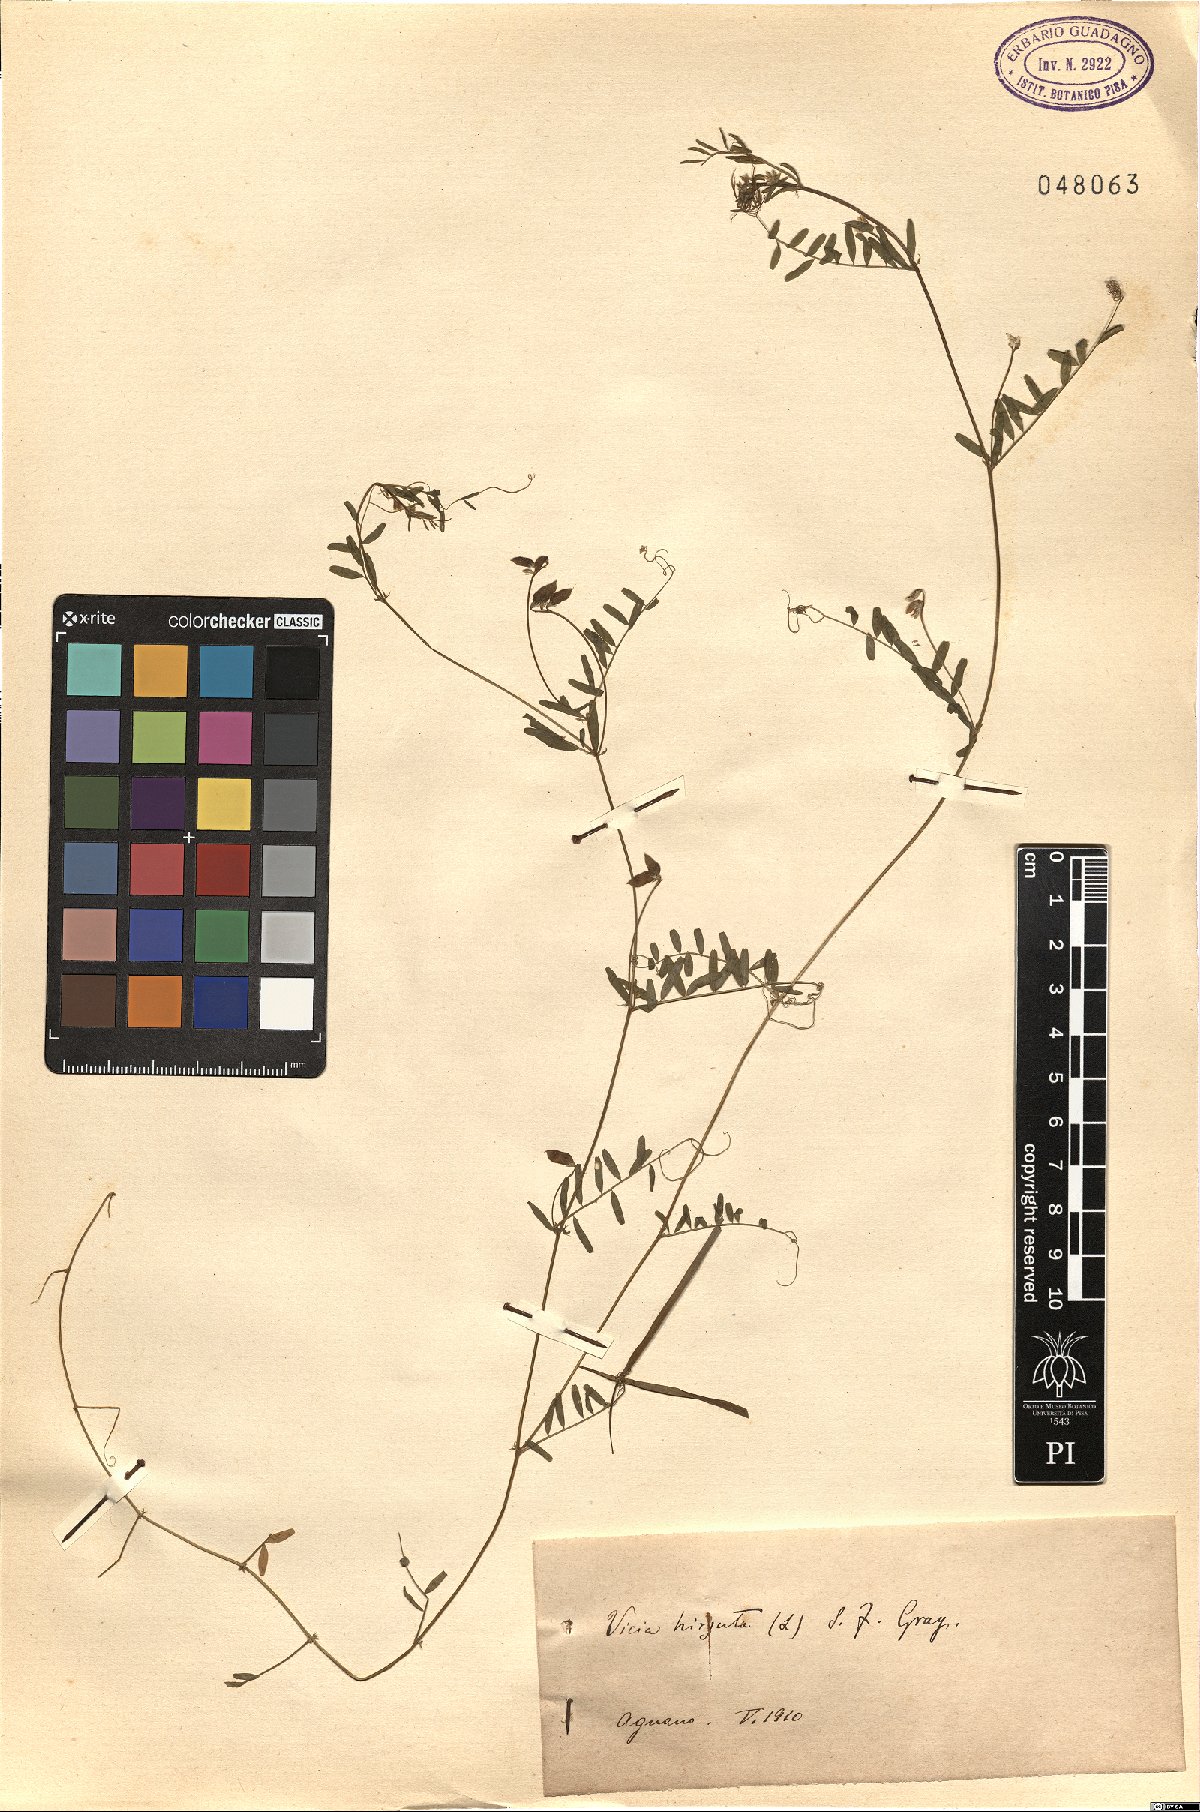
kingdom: Plantae
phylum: Tracheophyta
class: Magnoliopsida
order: Fabales
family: Fabaceae
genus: Vicia
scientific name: Vicia hirsuta
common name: Tiny vetch
